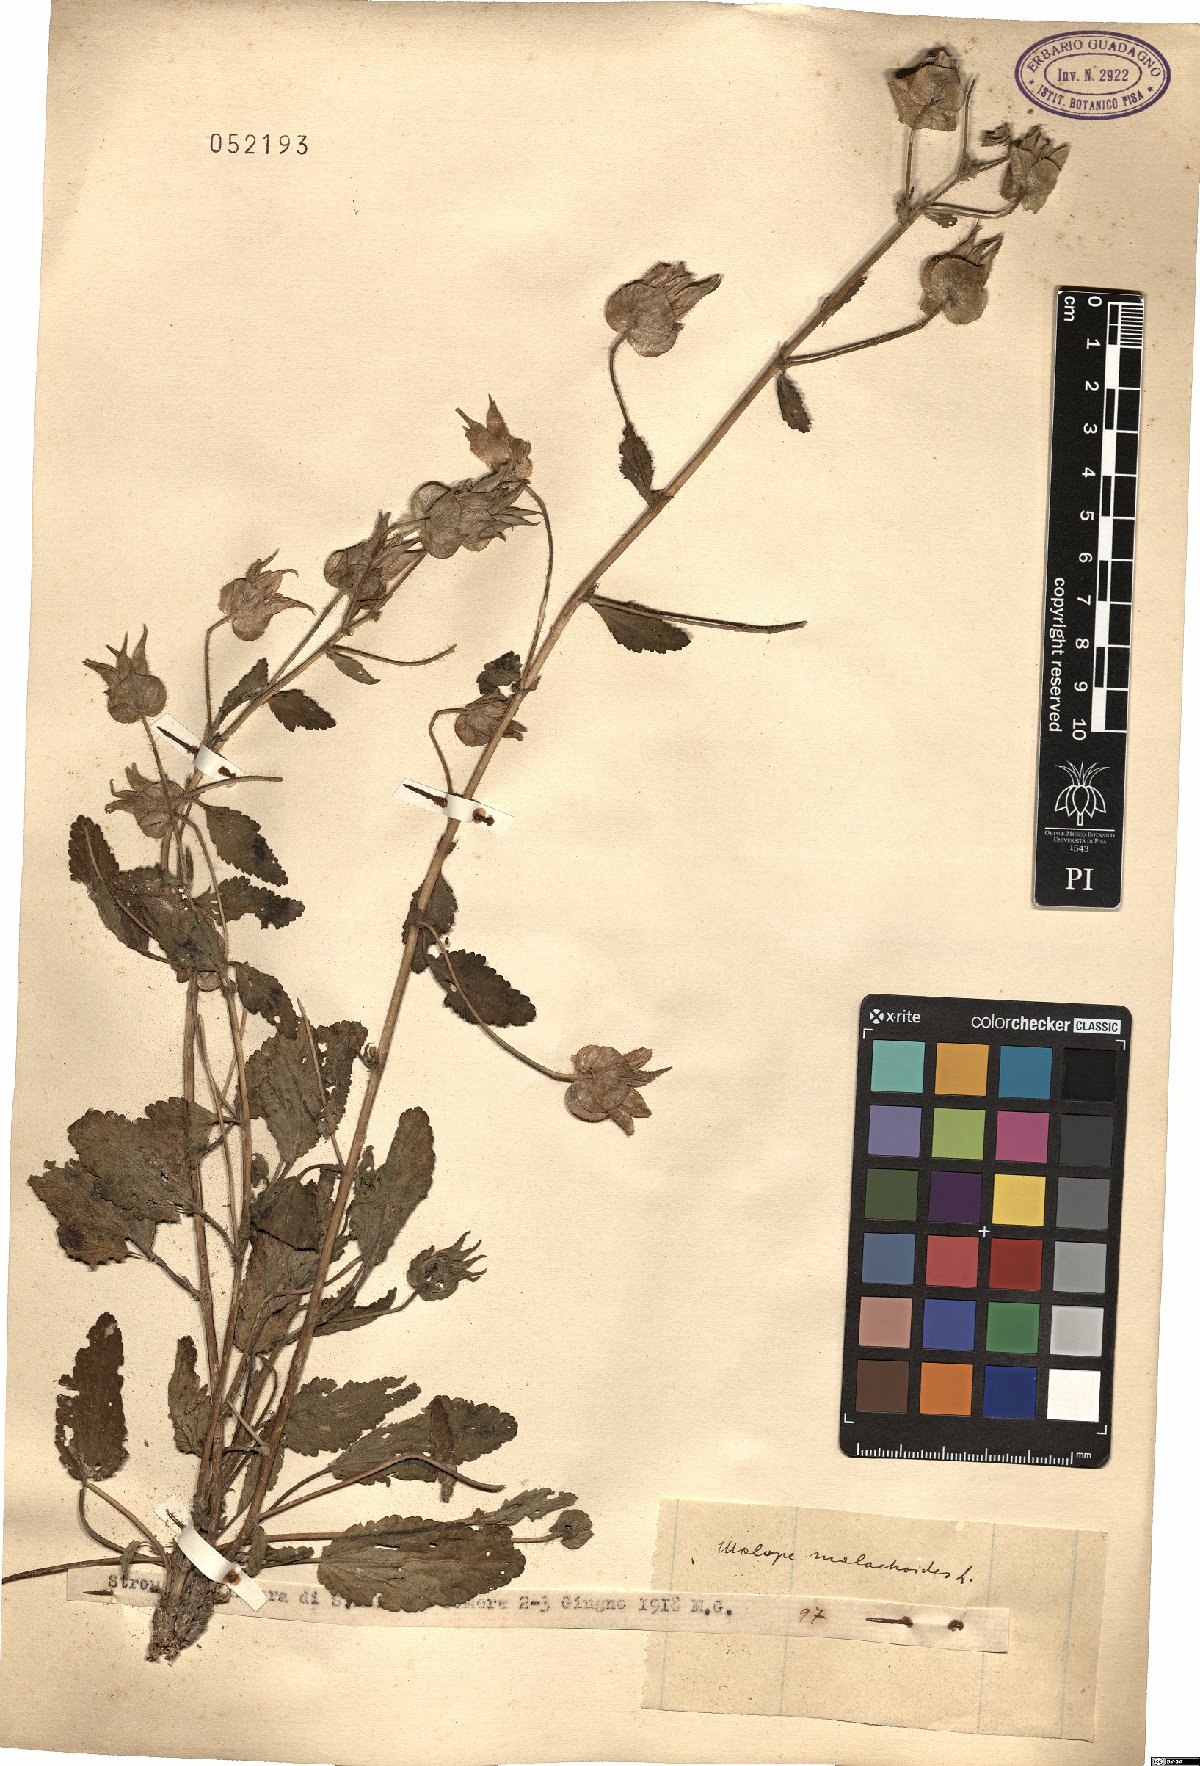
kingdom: Plantae
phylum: Tracheophyta
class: Magnoliopsida
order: Malvales
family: Malvaceae
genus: Malope
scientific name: Malope malacoides
